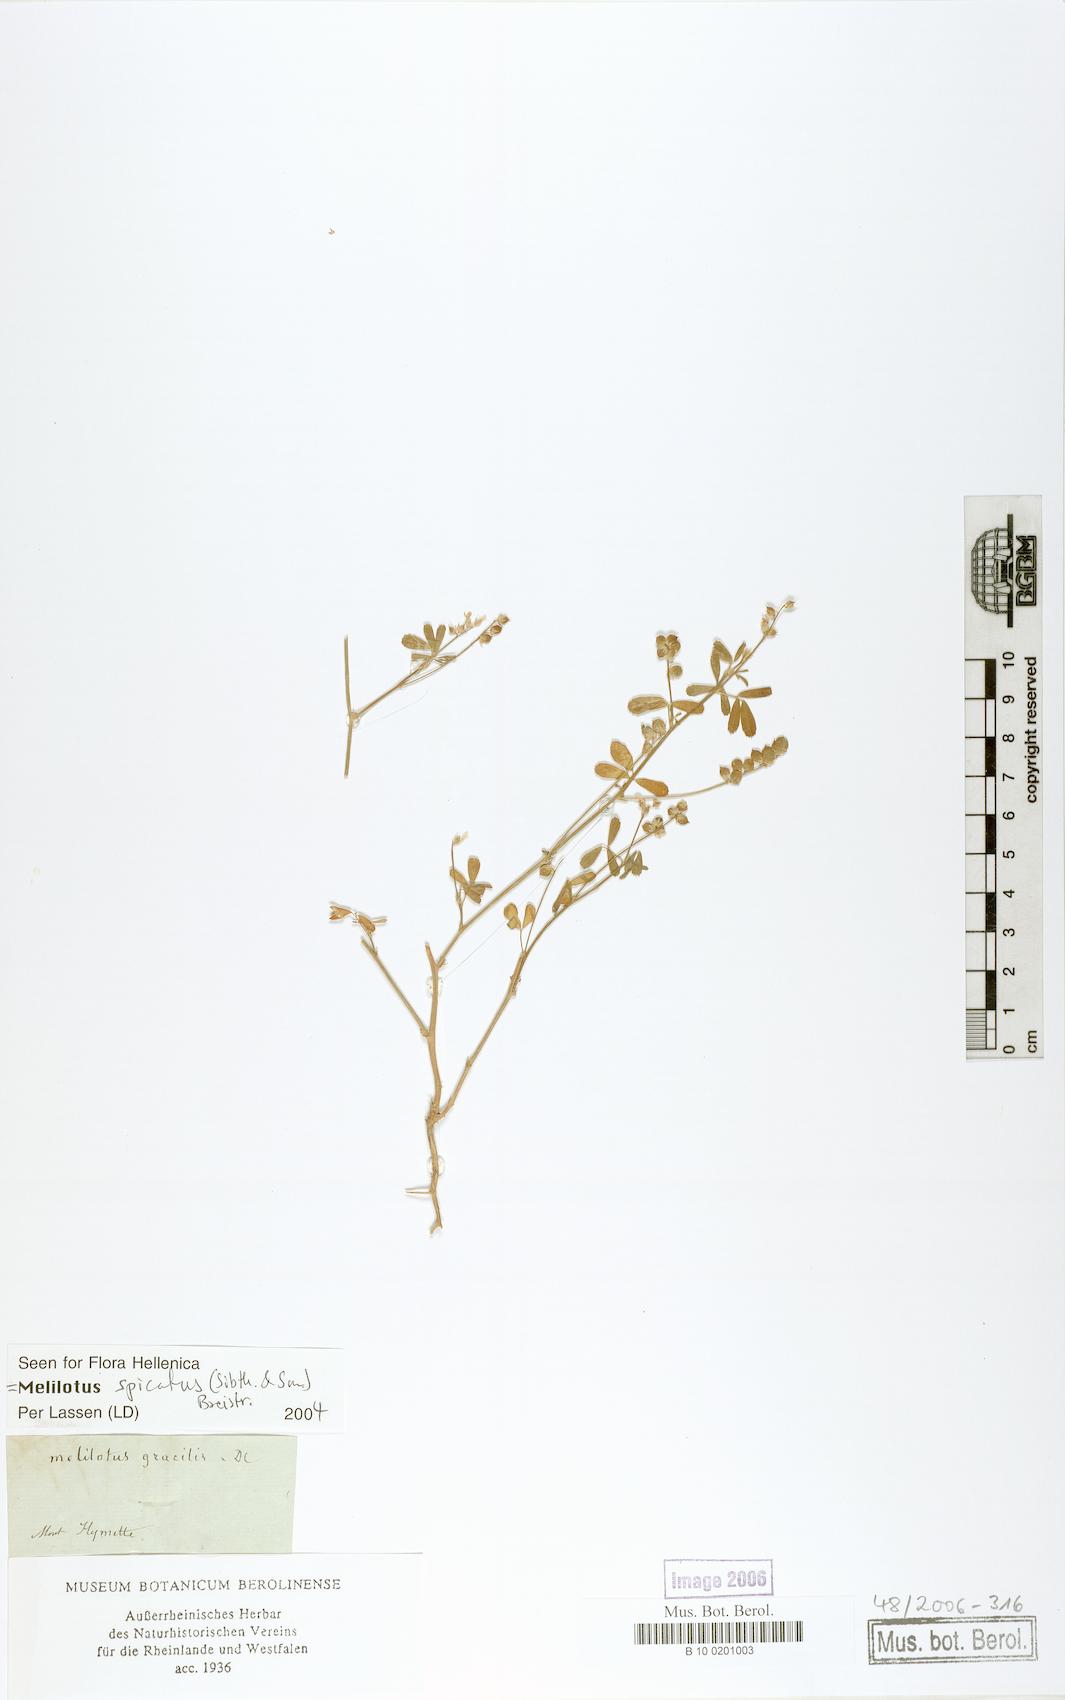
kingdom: Plantae
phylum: Tracheophyta
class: Magnoliopsida
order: Fabales
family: Fabaceae
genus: Melilotus
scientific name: Melilotus neapolitanus
